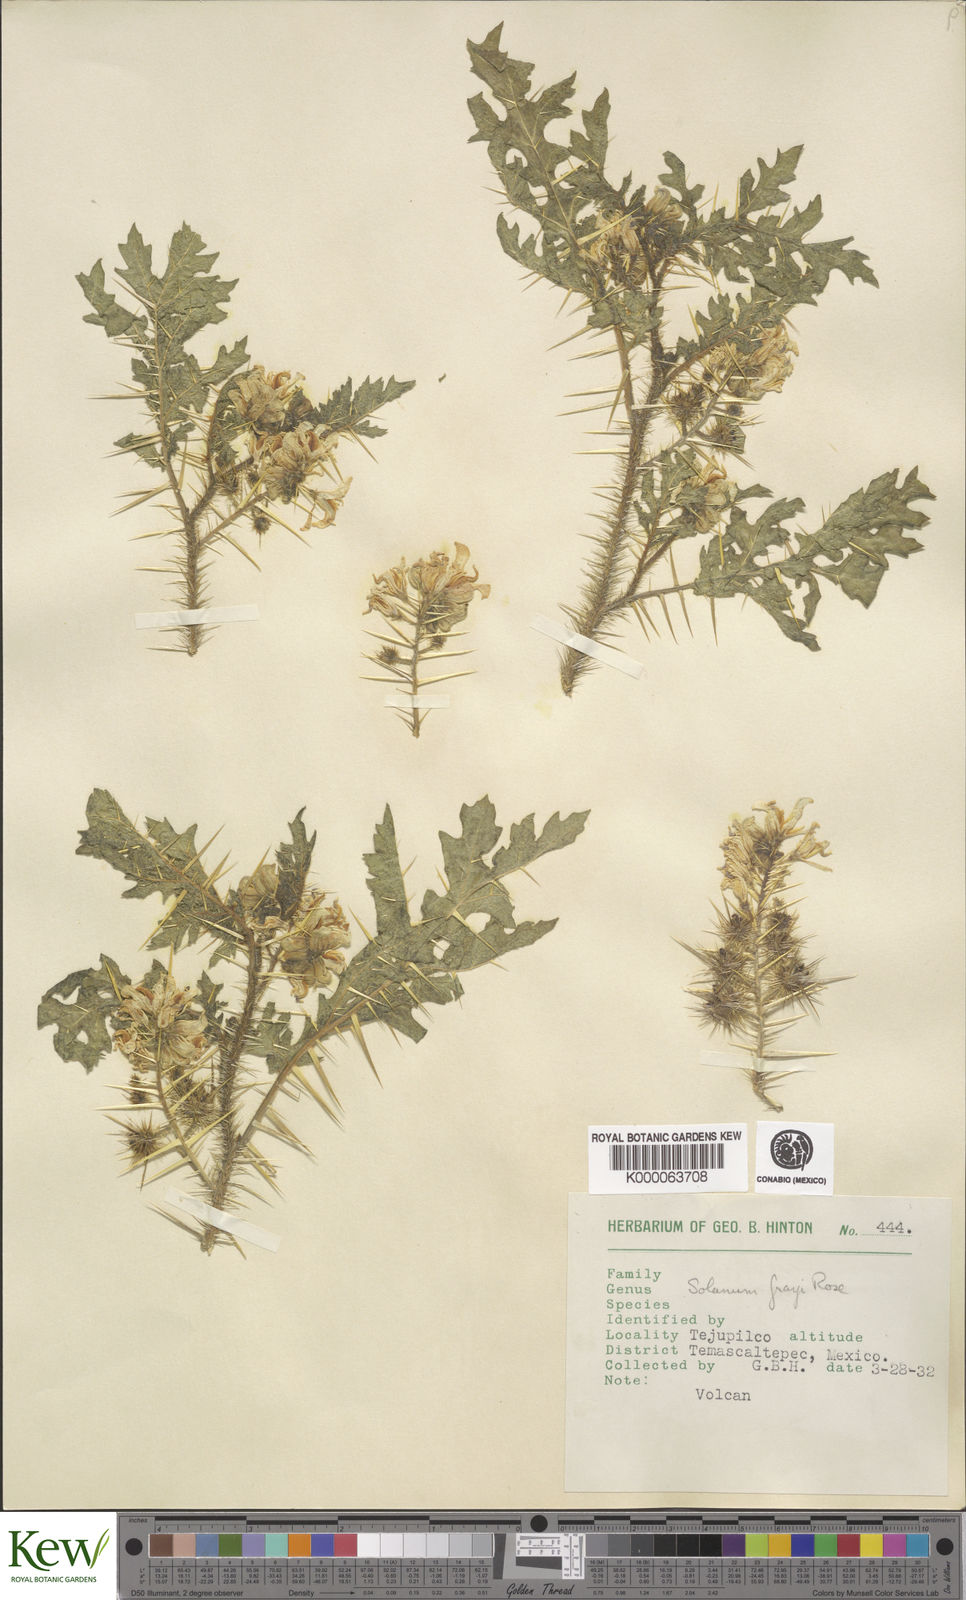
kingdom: Plantae
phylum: Tracheophyta
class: Magnoliopsida
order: Solanales
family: Solanaceae
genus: Solanum
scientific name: Solanum grayi
